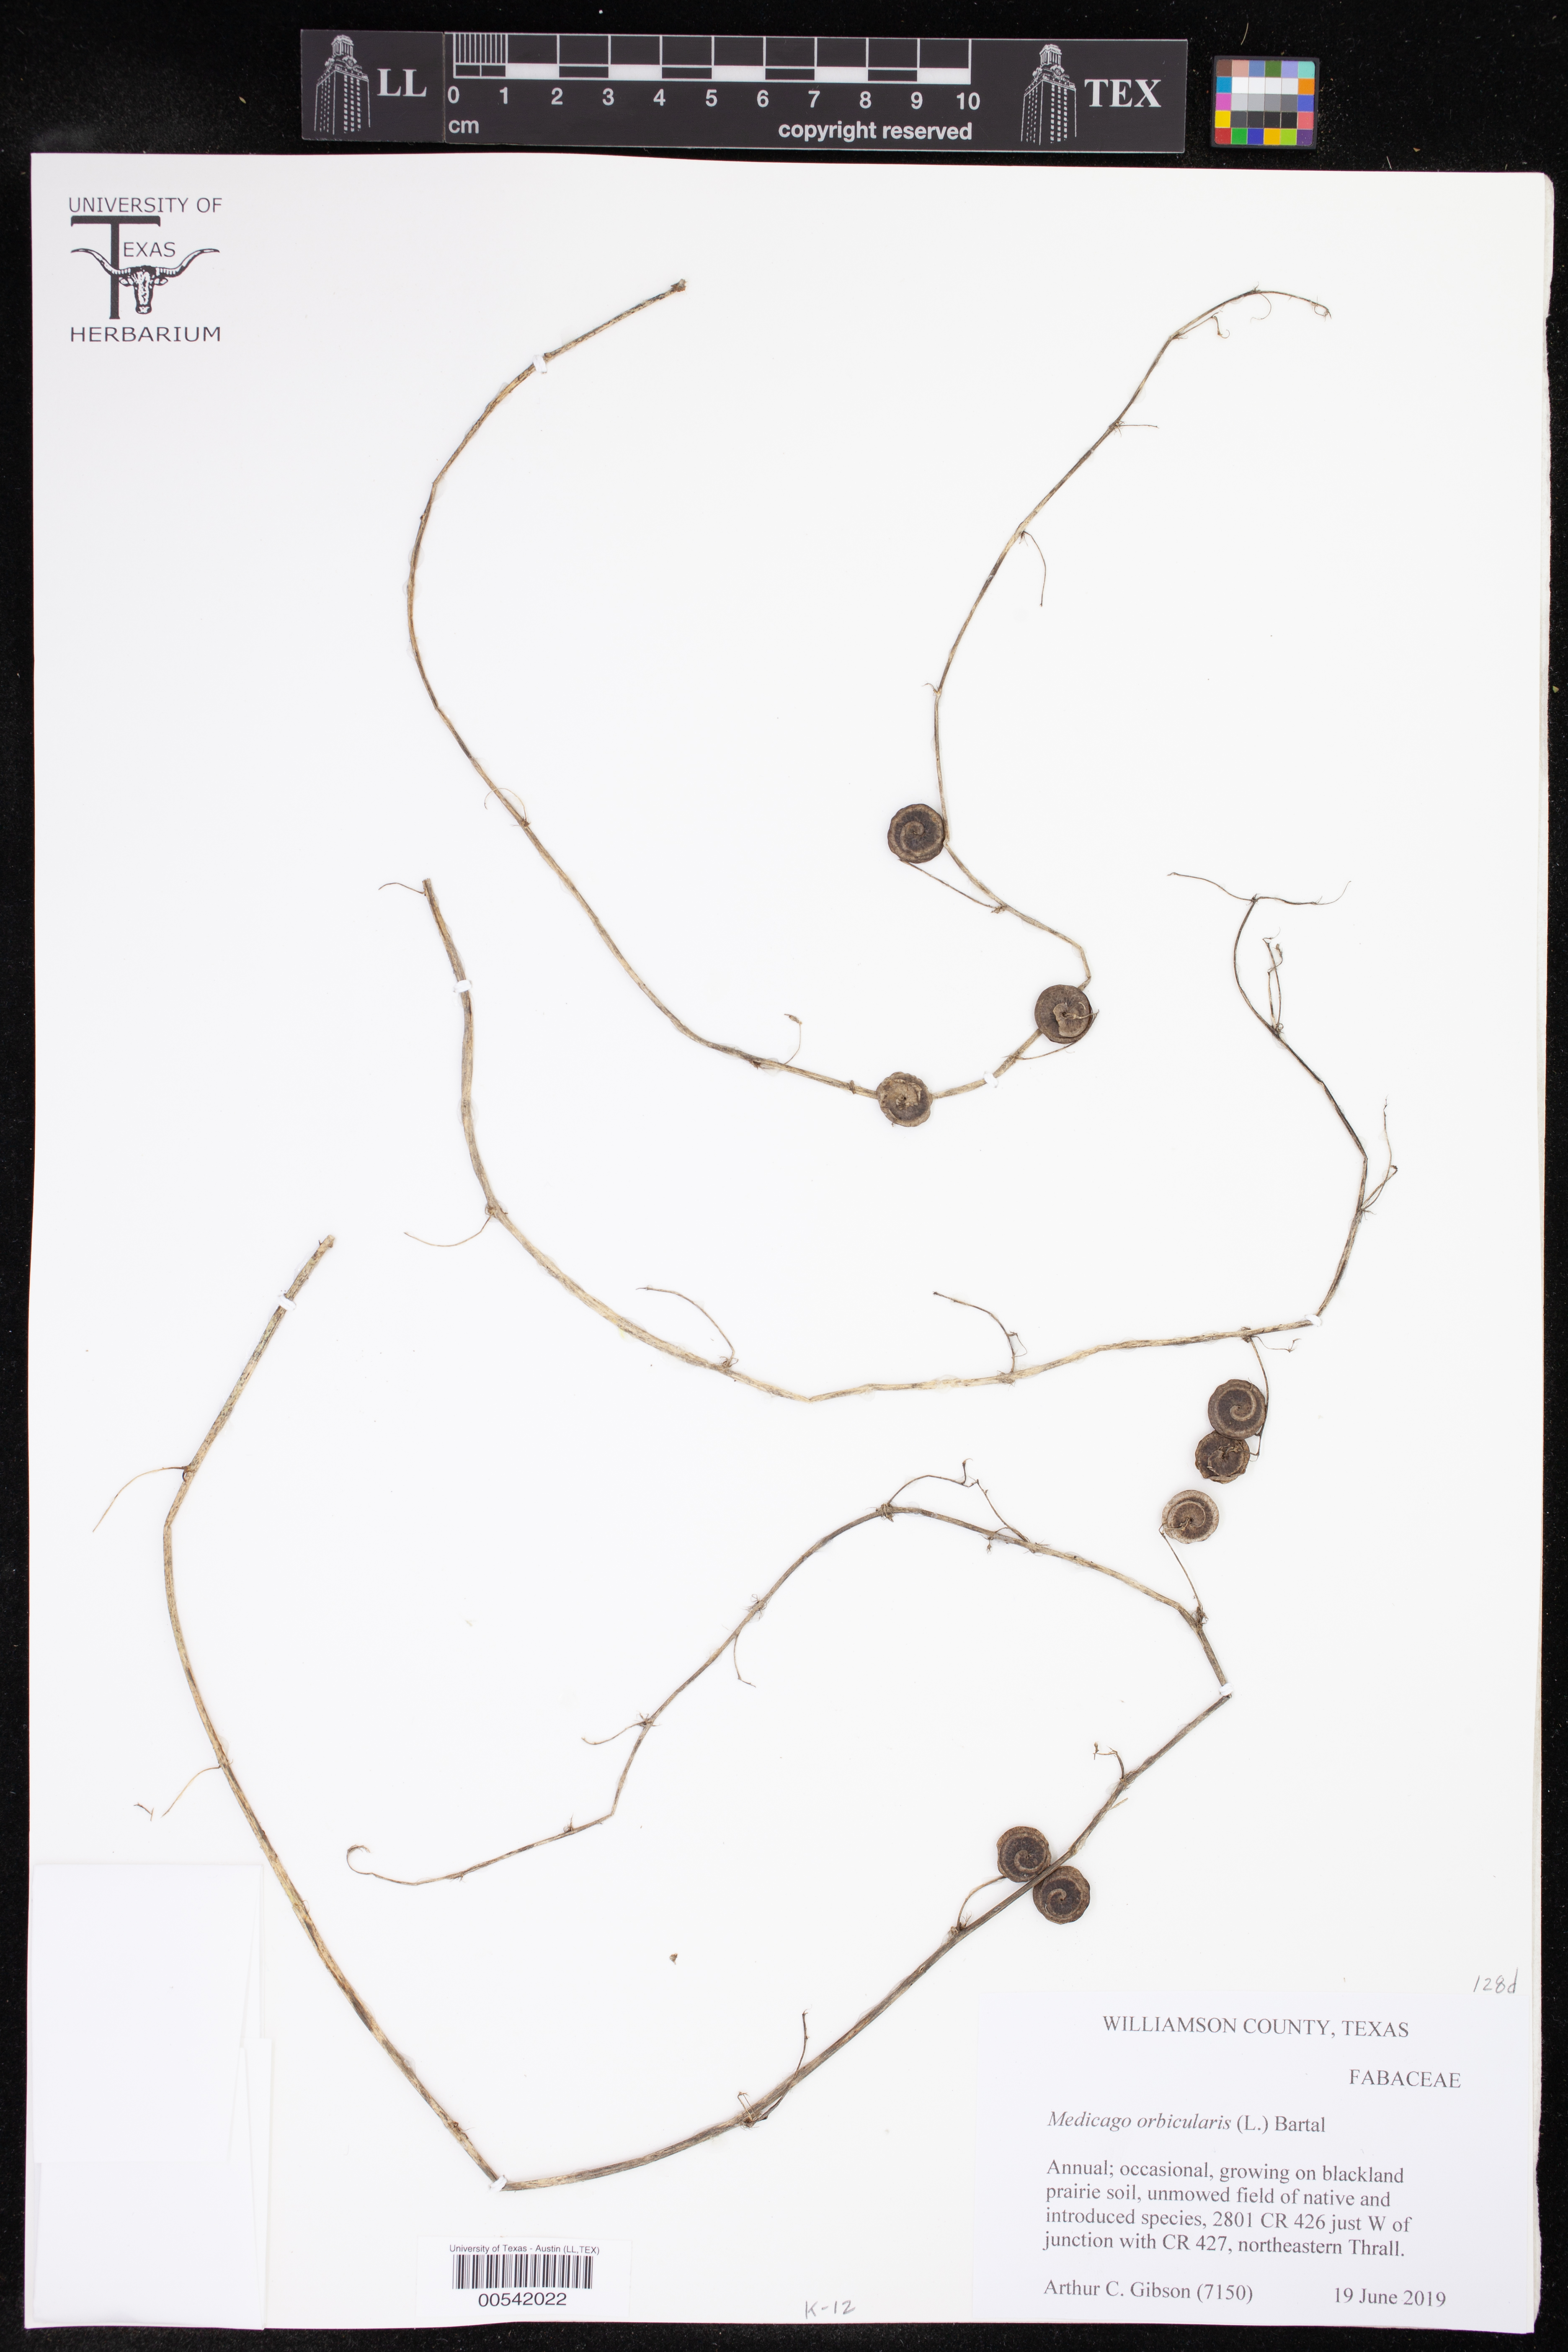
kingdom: Plantae
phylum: Tracheophyta
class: Magnoliopsida
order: Fabales
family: Fabaceae
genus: Medicago
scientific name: Medicago orbicularis
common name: Button medick
